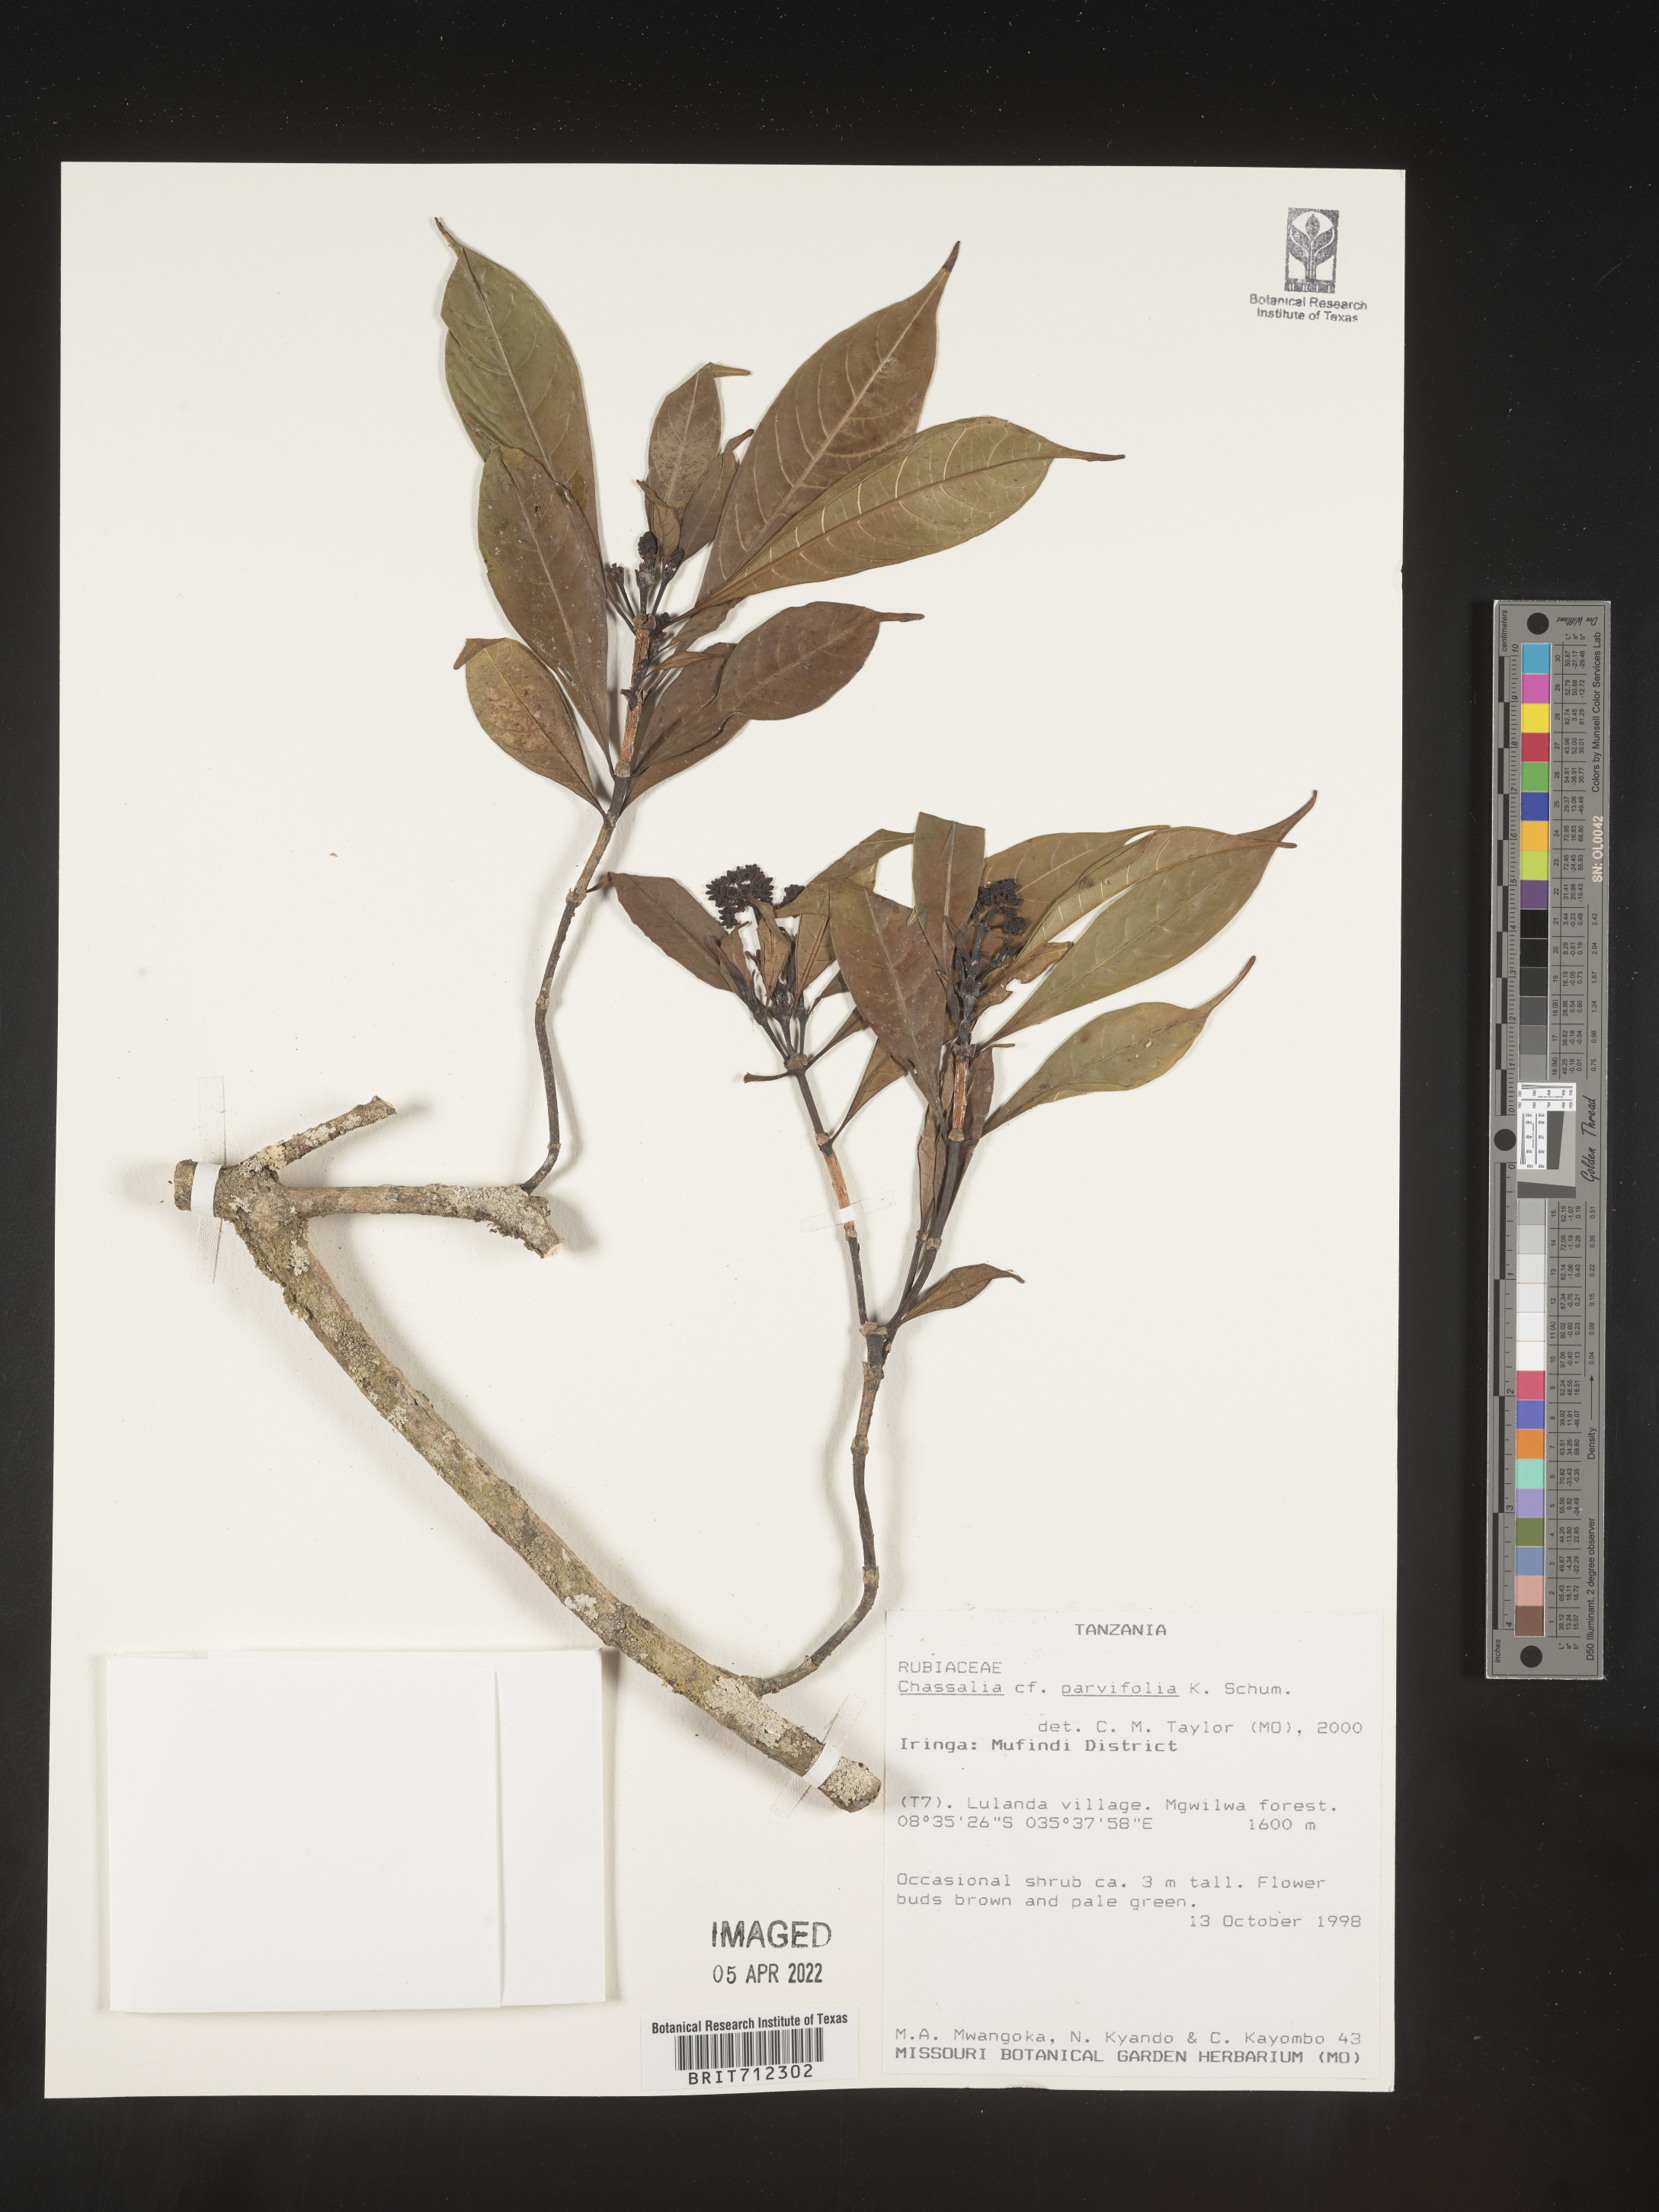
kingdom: Plantae
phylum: Tracheophyta
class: Magnoliopsida
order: Gentianales
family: Rubiaceae
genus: Chassalia
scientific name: Chassalia
